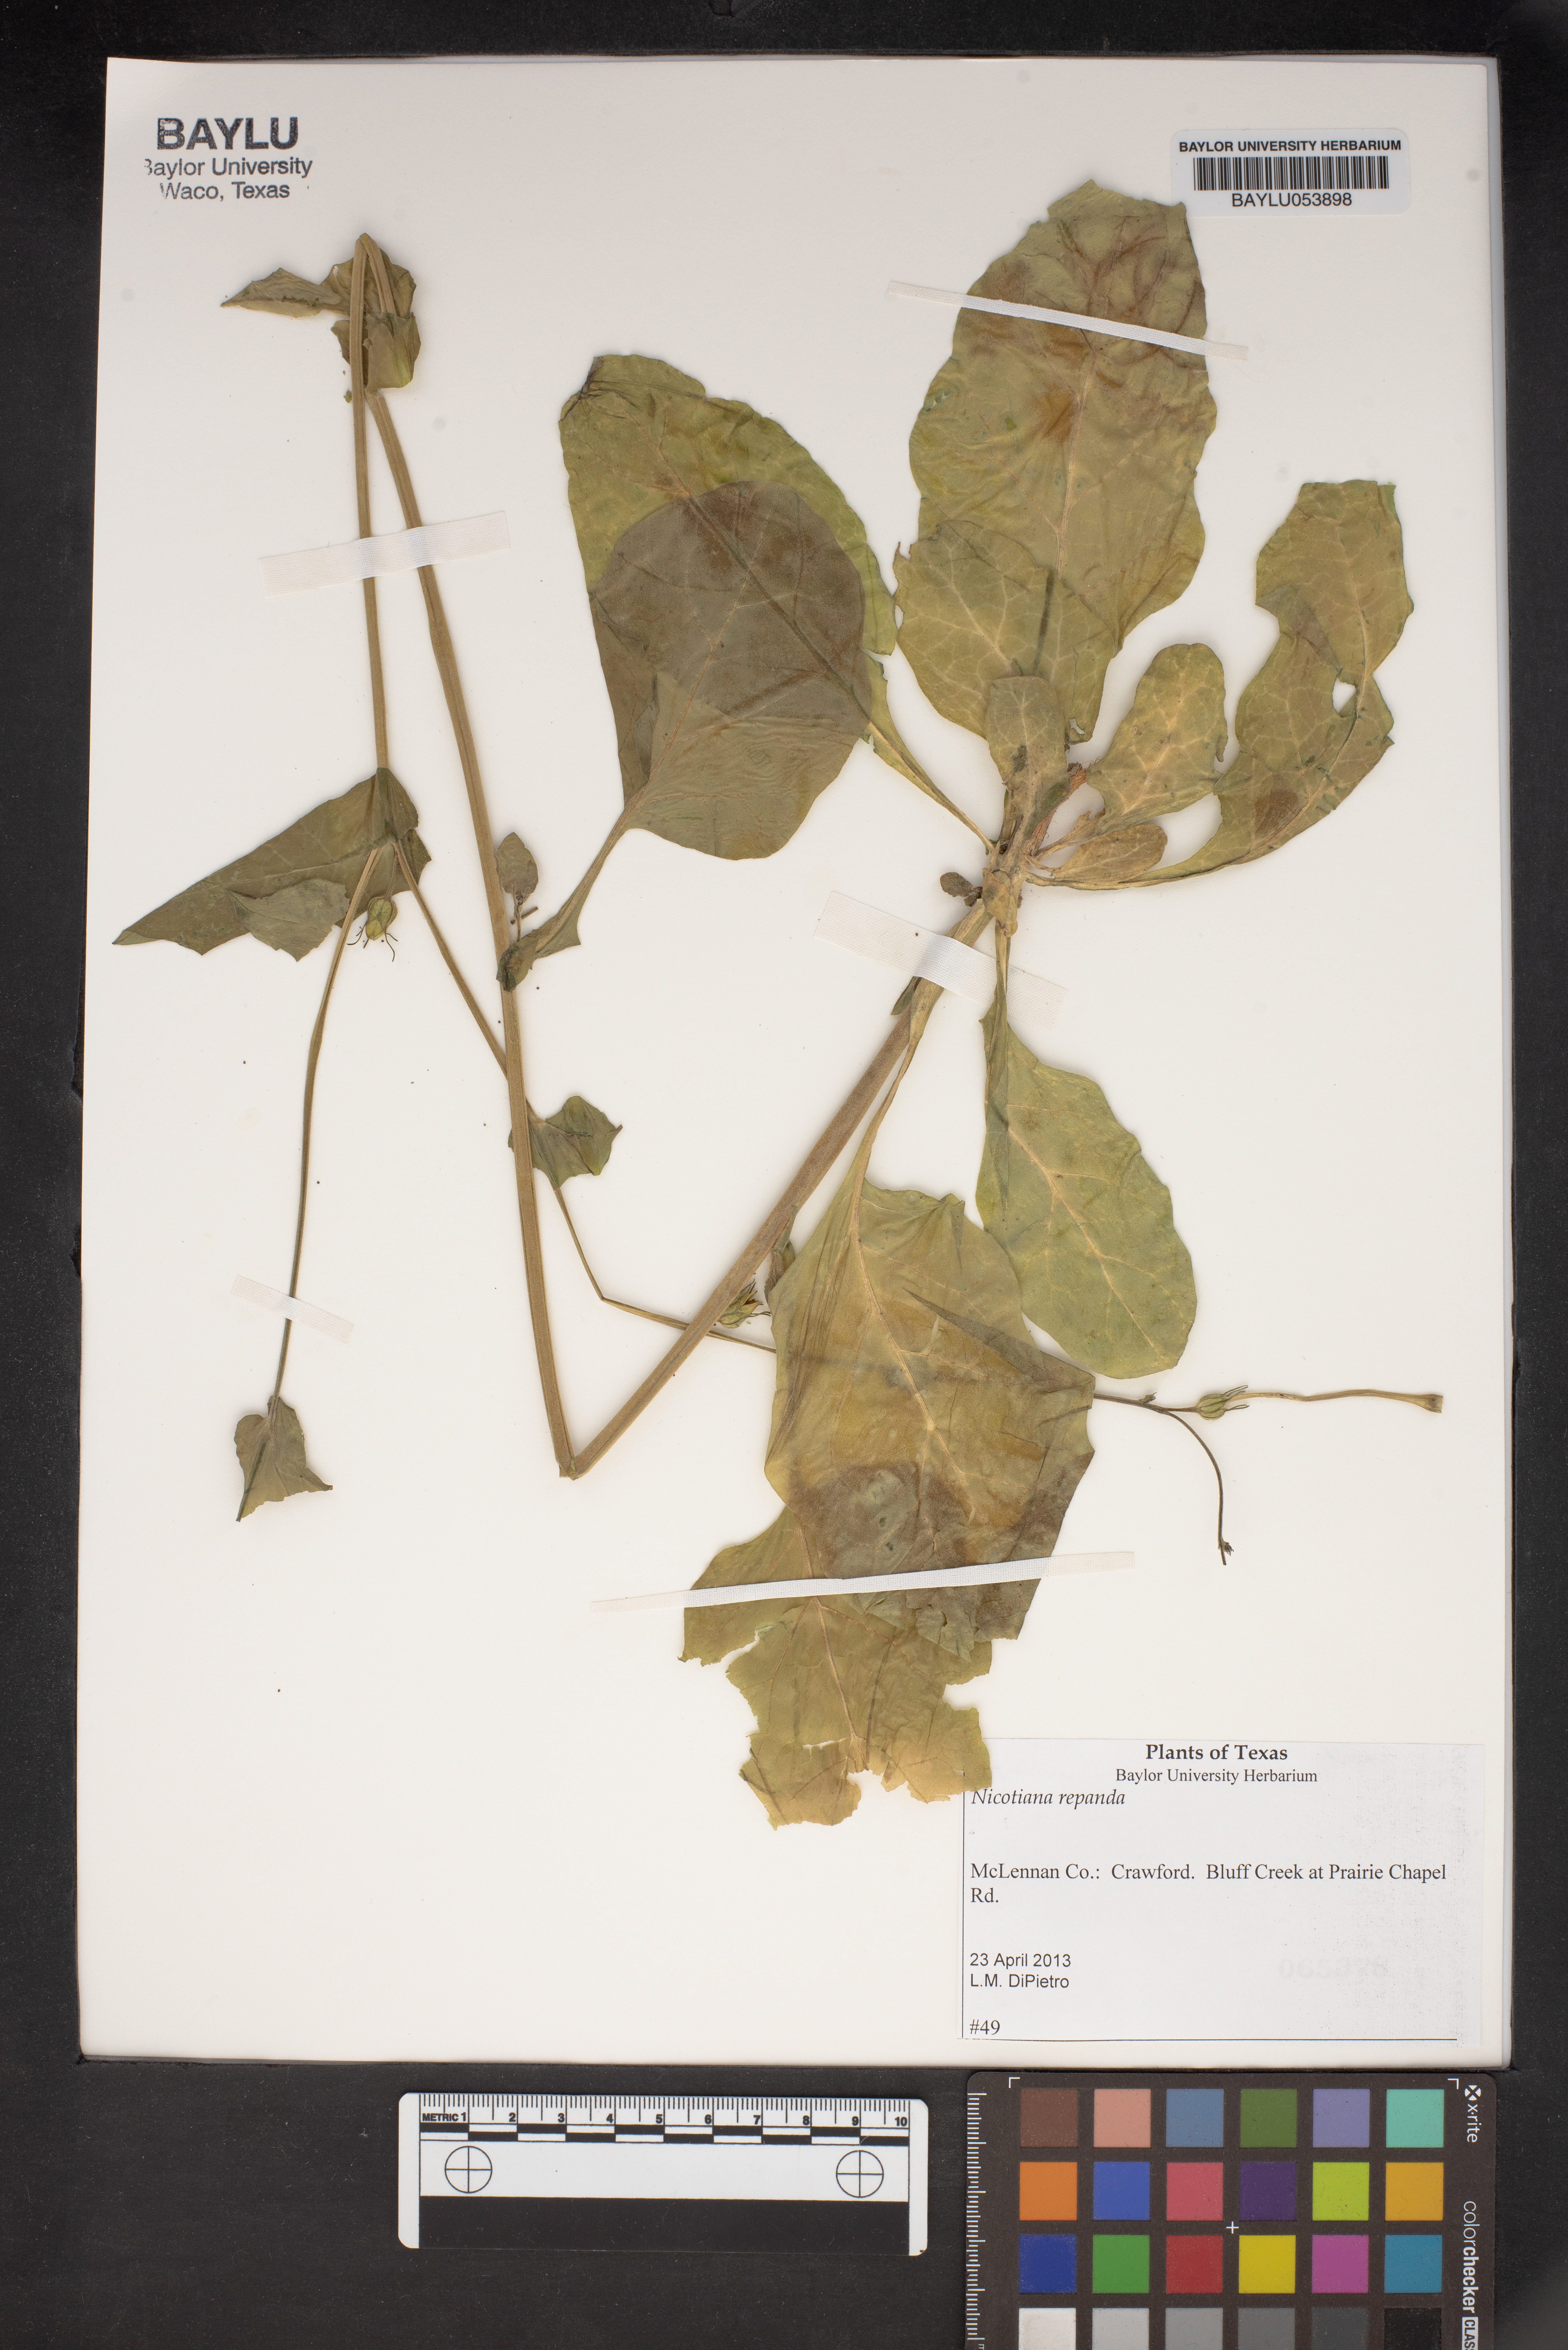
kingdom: Plantae
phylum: Tracheophyta
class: Magnoliopsida
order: Solanales
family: Solanaceae
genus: Nicotiana
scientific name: Nicotiana repanda
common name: Fiddle-leaf tobacco
